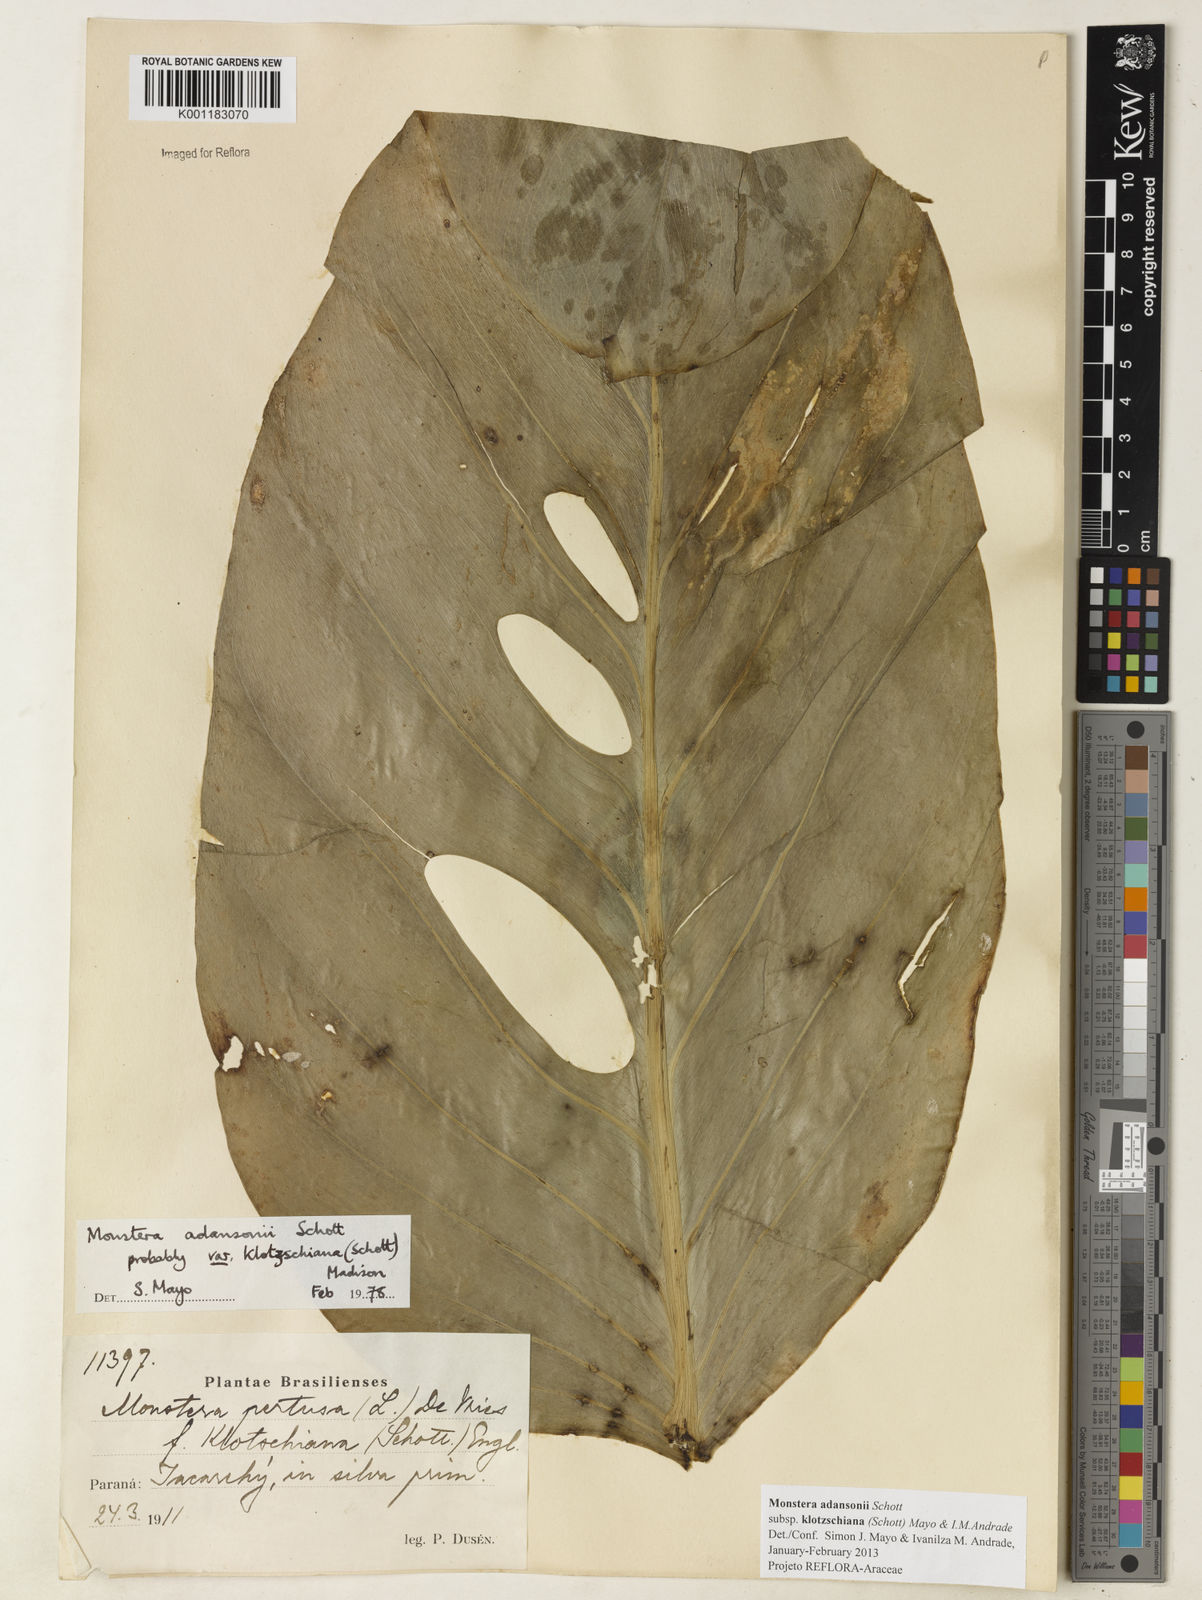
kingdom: Plantae
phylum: Tracheophyta
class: Liliopsida
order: Alismatales
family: Araceae
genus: Monstera
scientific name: Monstera adansonii
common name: Tarovine
